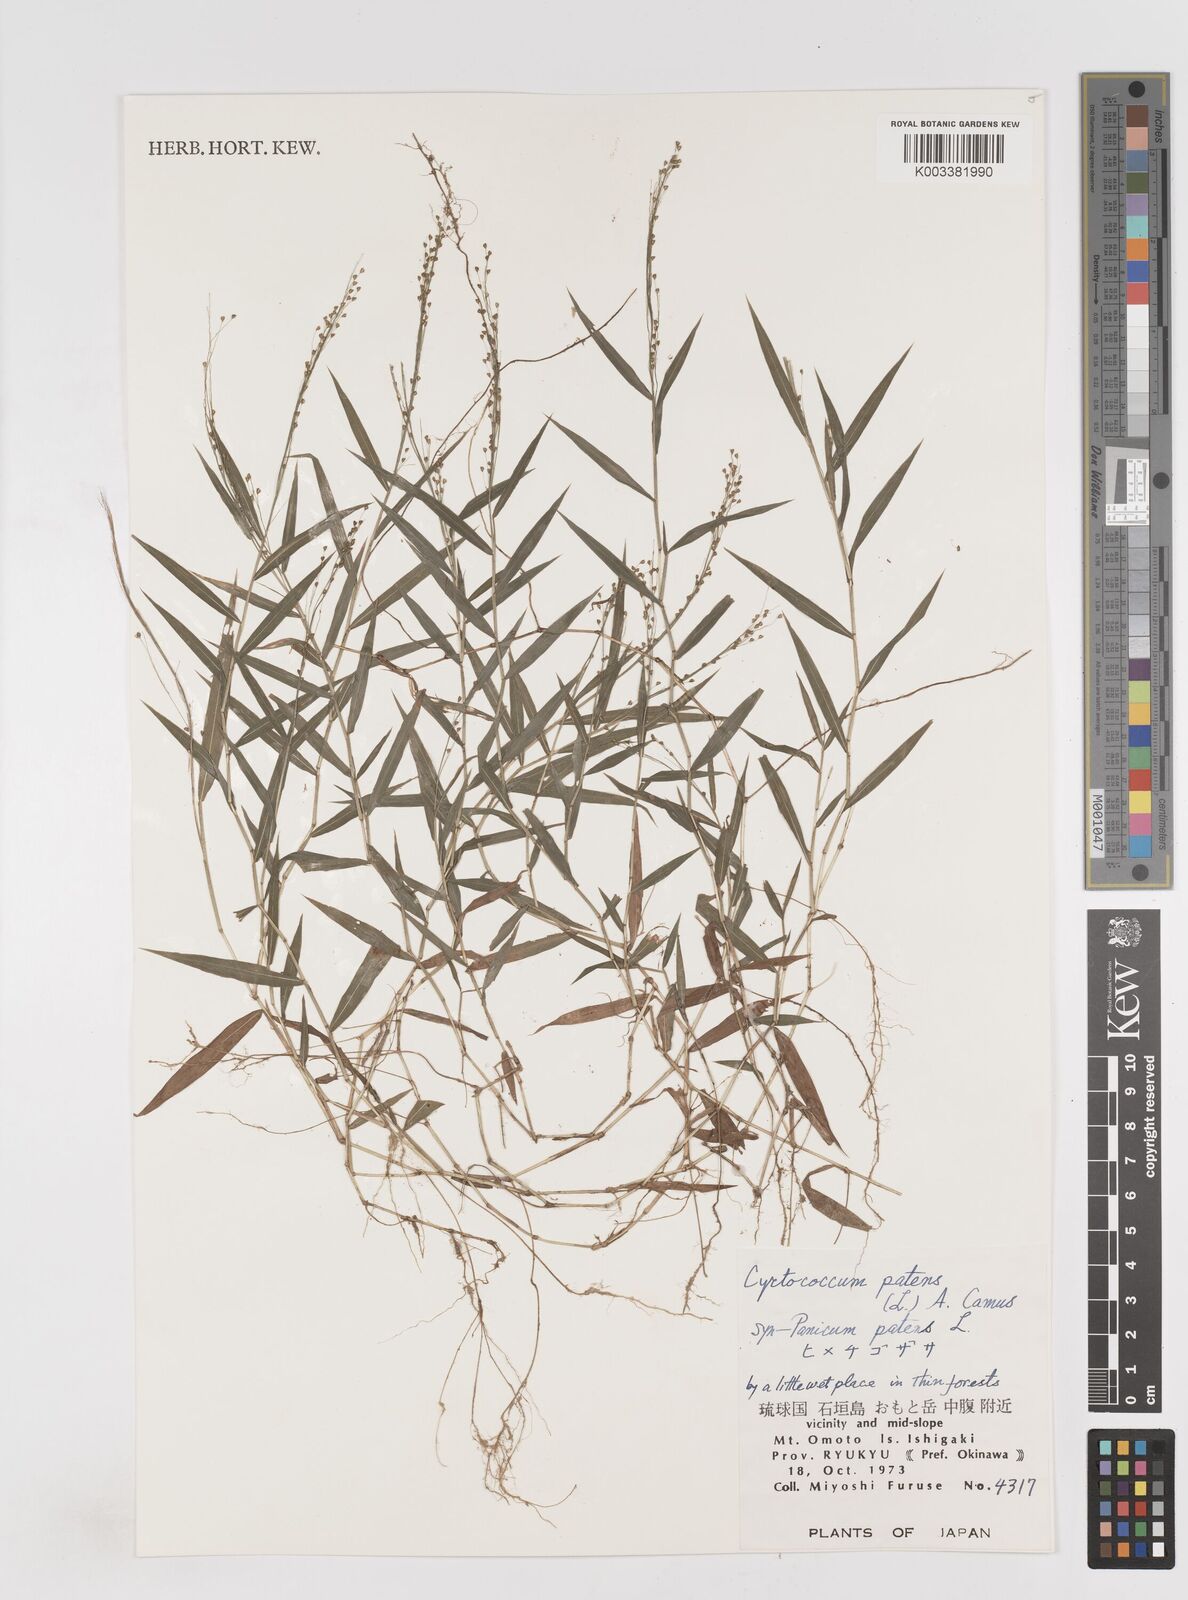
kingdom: Plantae
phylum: Tracheophyta
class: Liliopsida
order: Poales
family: Poaceae
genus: Cyrtococcum
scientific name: Cyrtococcum patens
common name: Broad-leaved bowgrass
